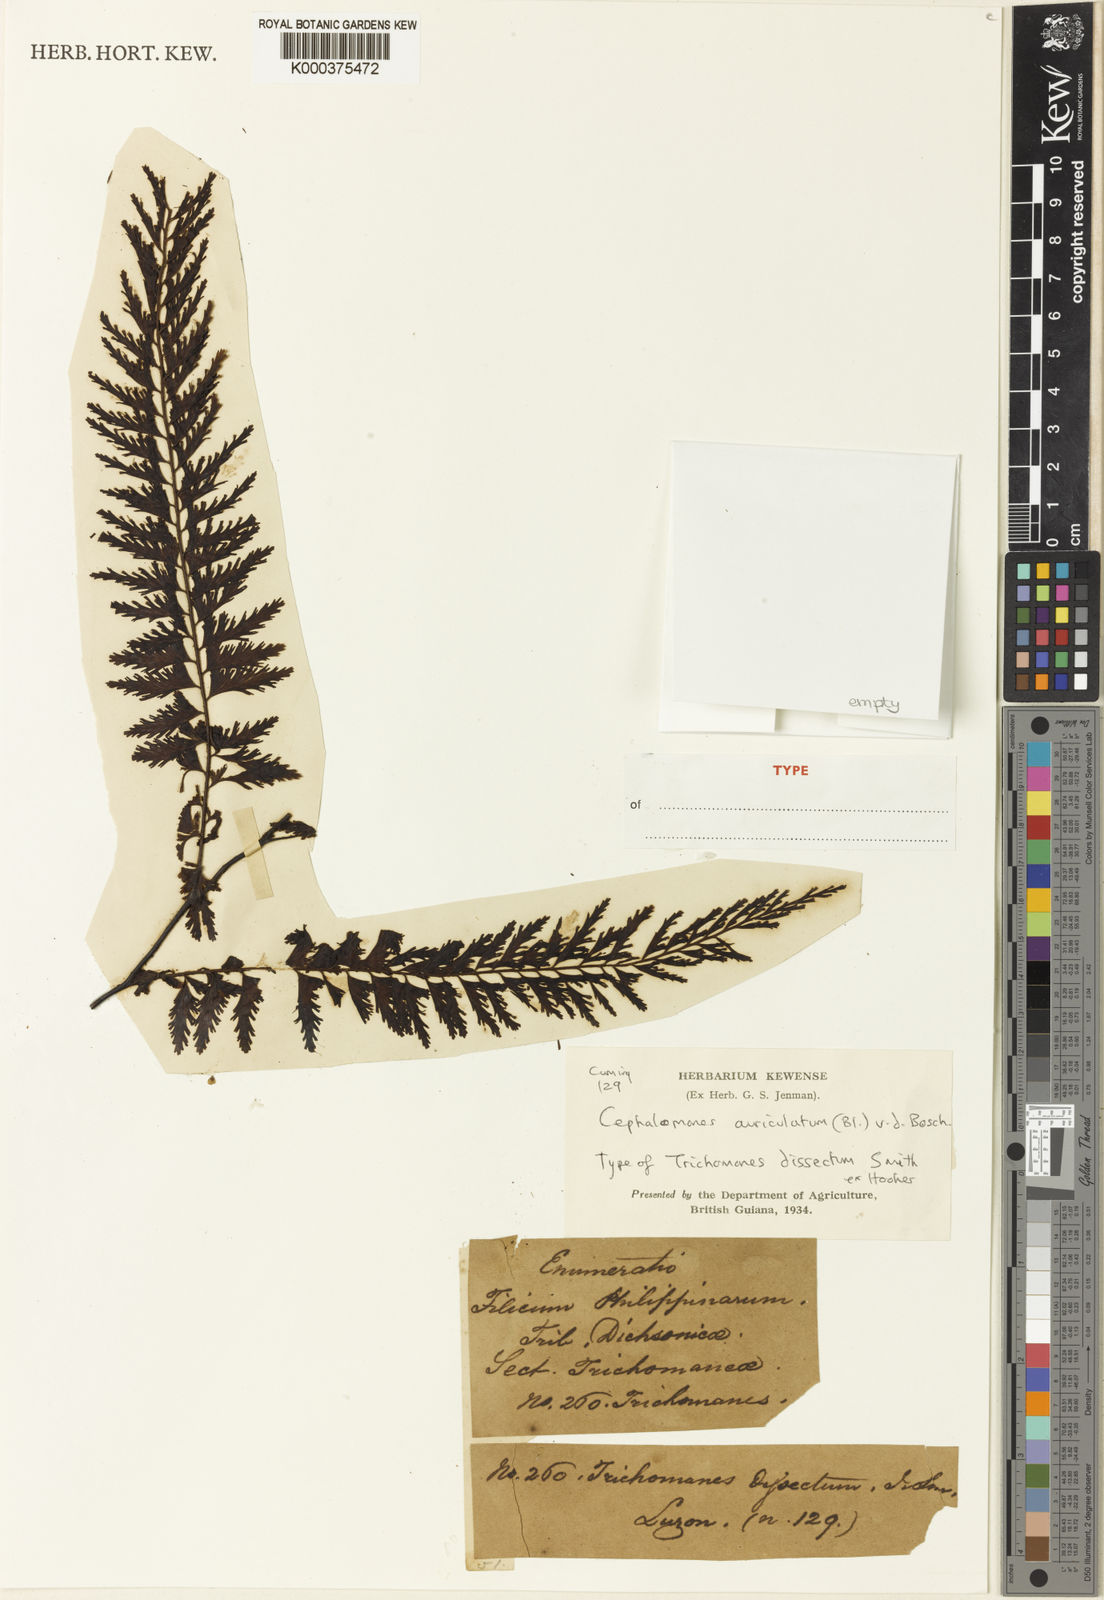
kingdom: Plantae
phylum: Tracheophyta
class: Polypodiopsida
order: Hymenophyllales
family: Hymenophyllaceae
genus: Vandenboschia
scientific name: Vandenboschia auriculata
